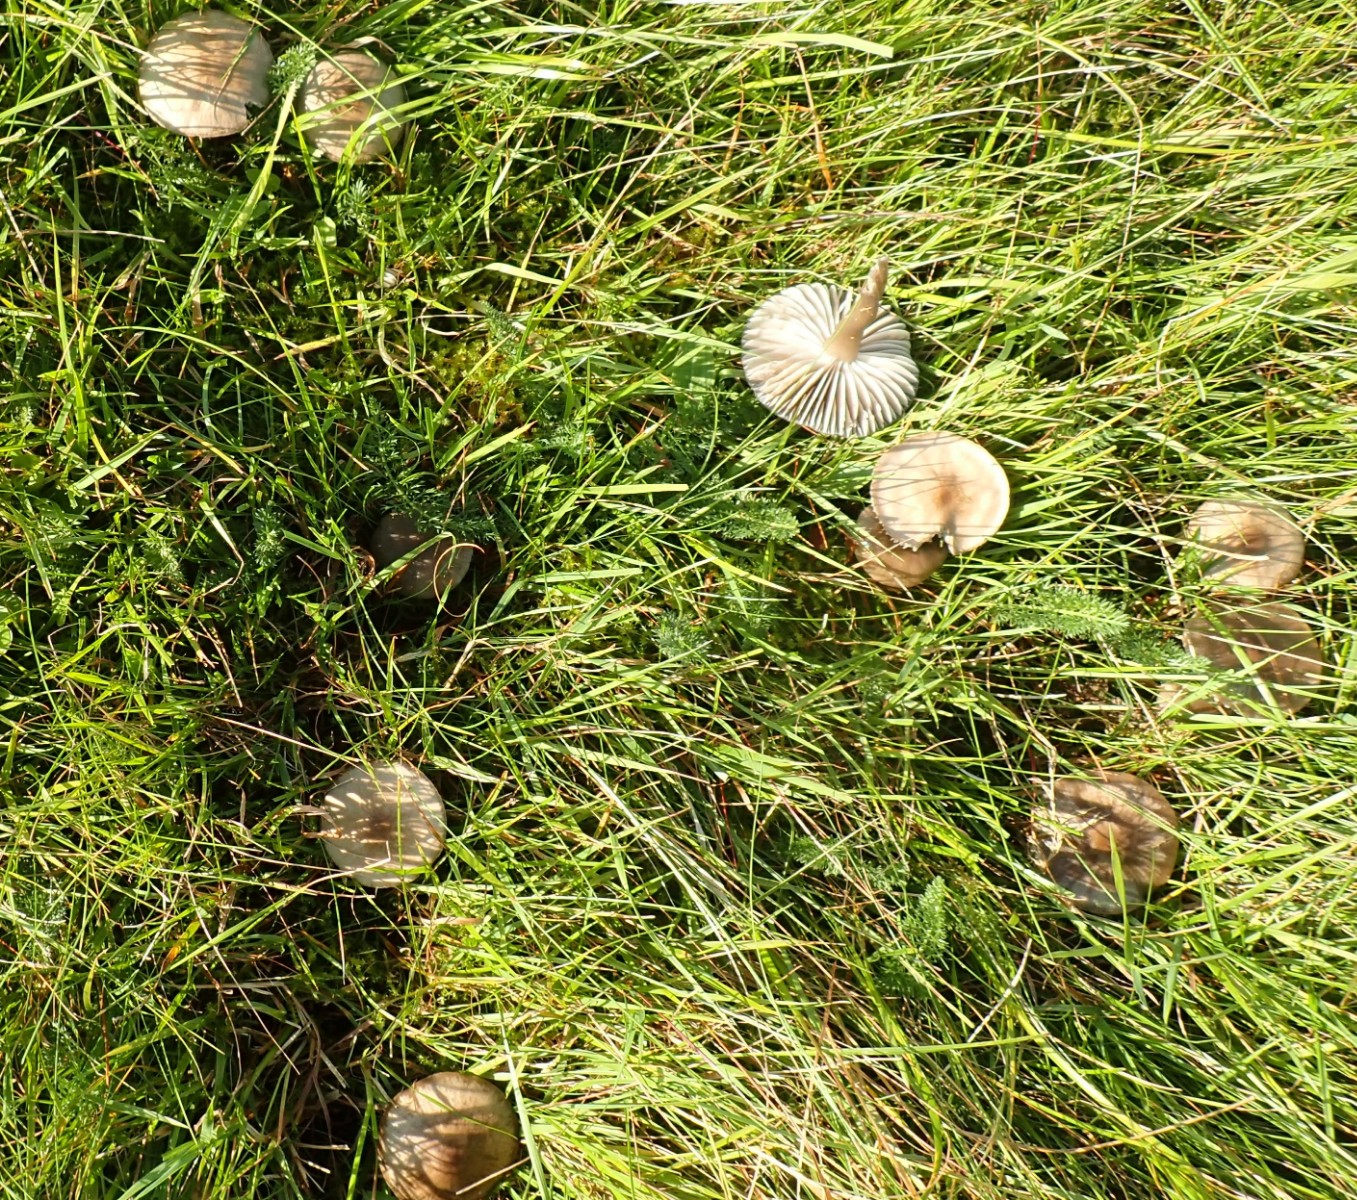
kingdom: Fungi
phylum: Basidiomycota
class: Agaricomycetes
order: Agaricales
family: Hygrophoraceae
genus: Gliophorus
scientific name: Gliophorus irrigatus
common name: slimet vokshat
